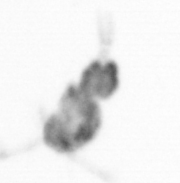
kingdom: Animalia
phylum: Arthropoda
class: Copepoda
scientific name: Copepoda
